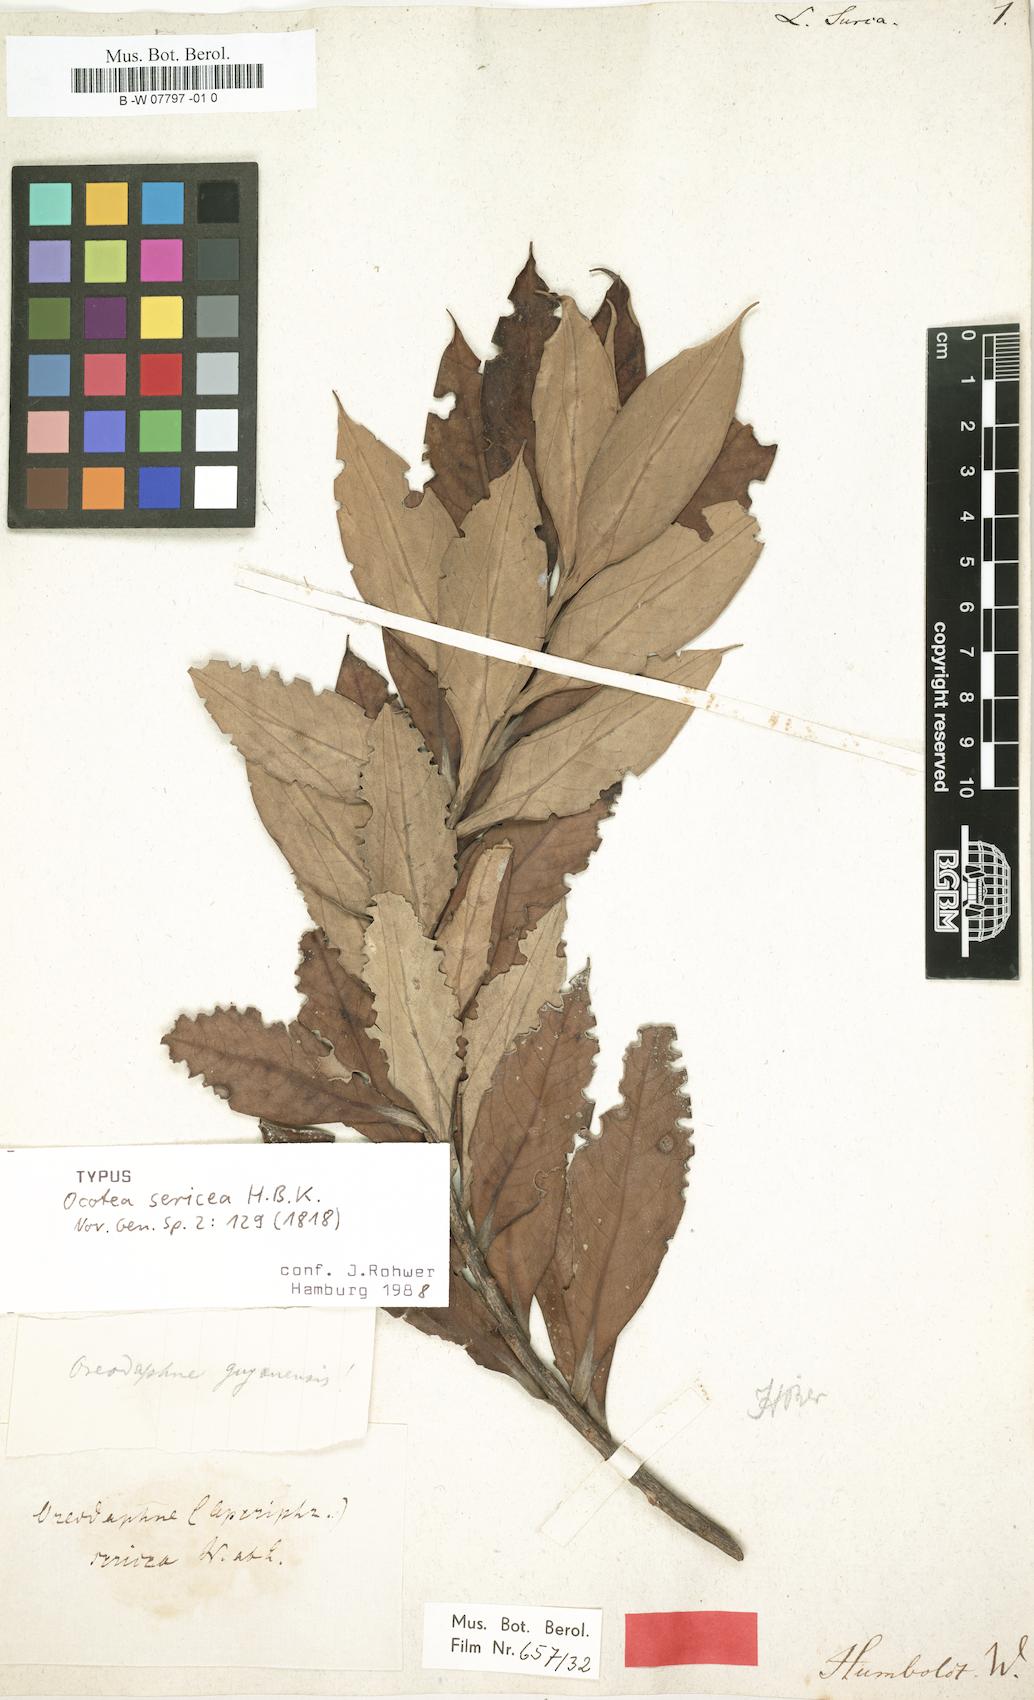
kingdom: Plantae
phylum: Tracheophyta
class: Magnoliopsida
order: Laurales
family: Lauraceae
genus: Ocotea
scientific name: Ocotea guianensis
